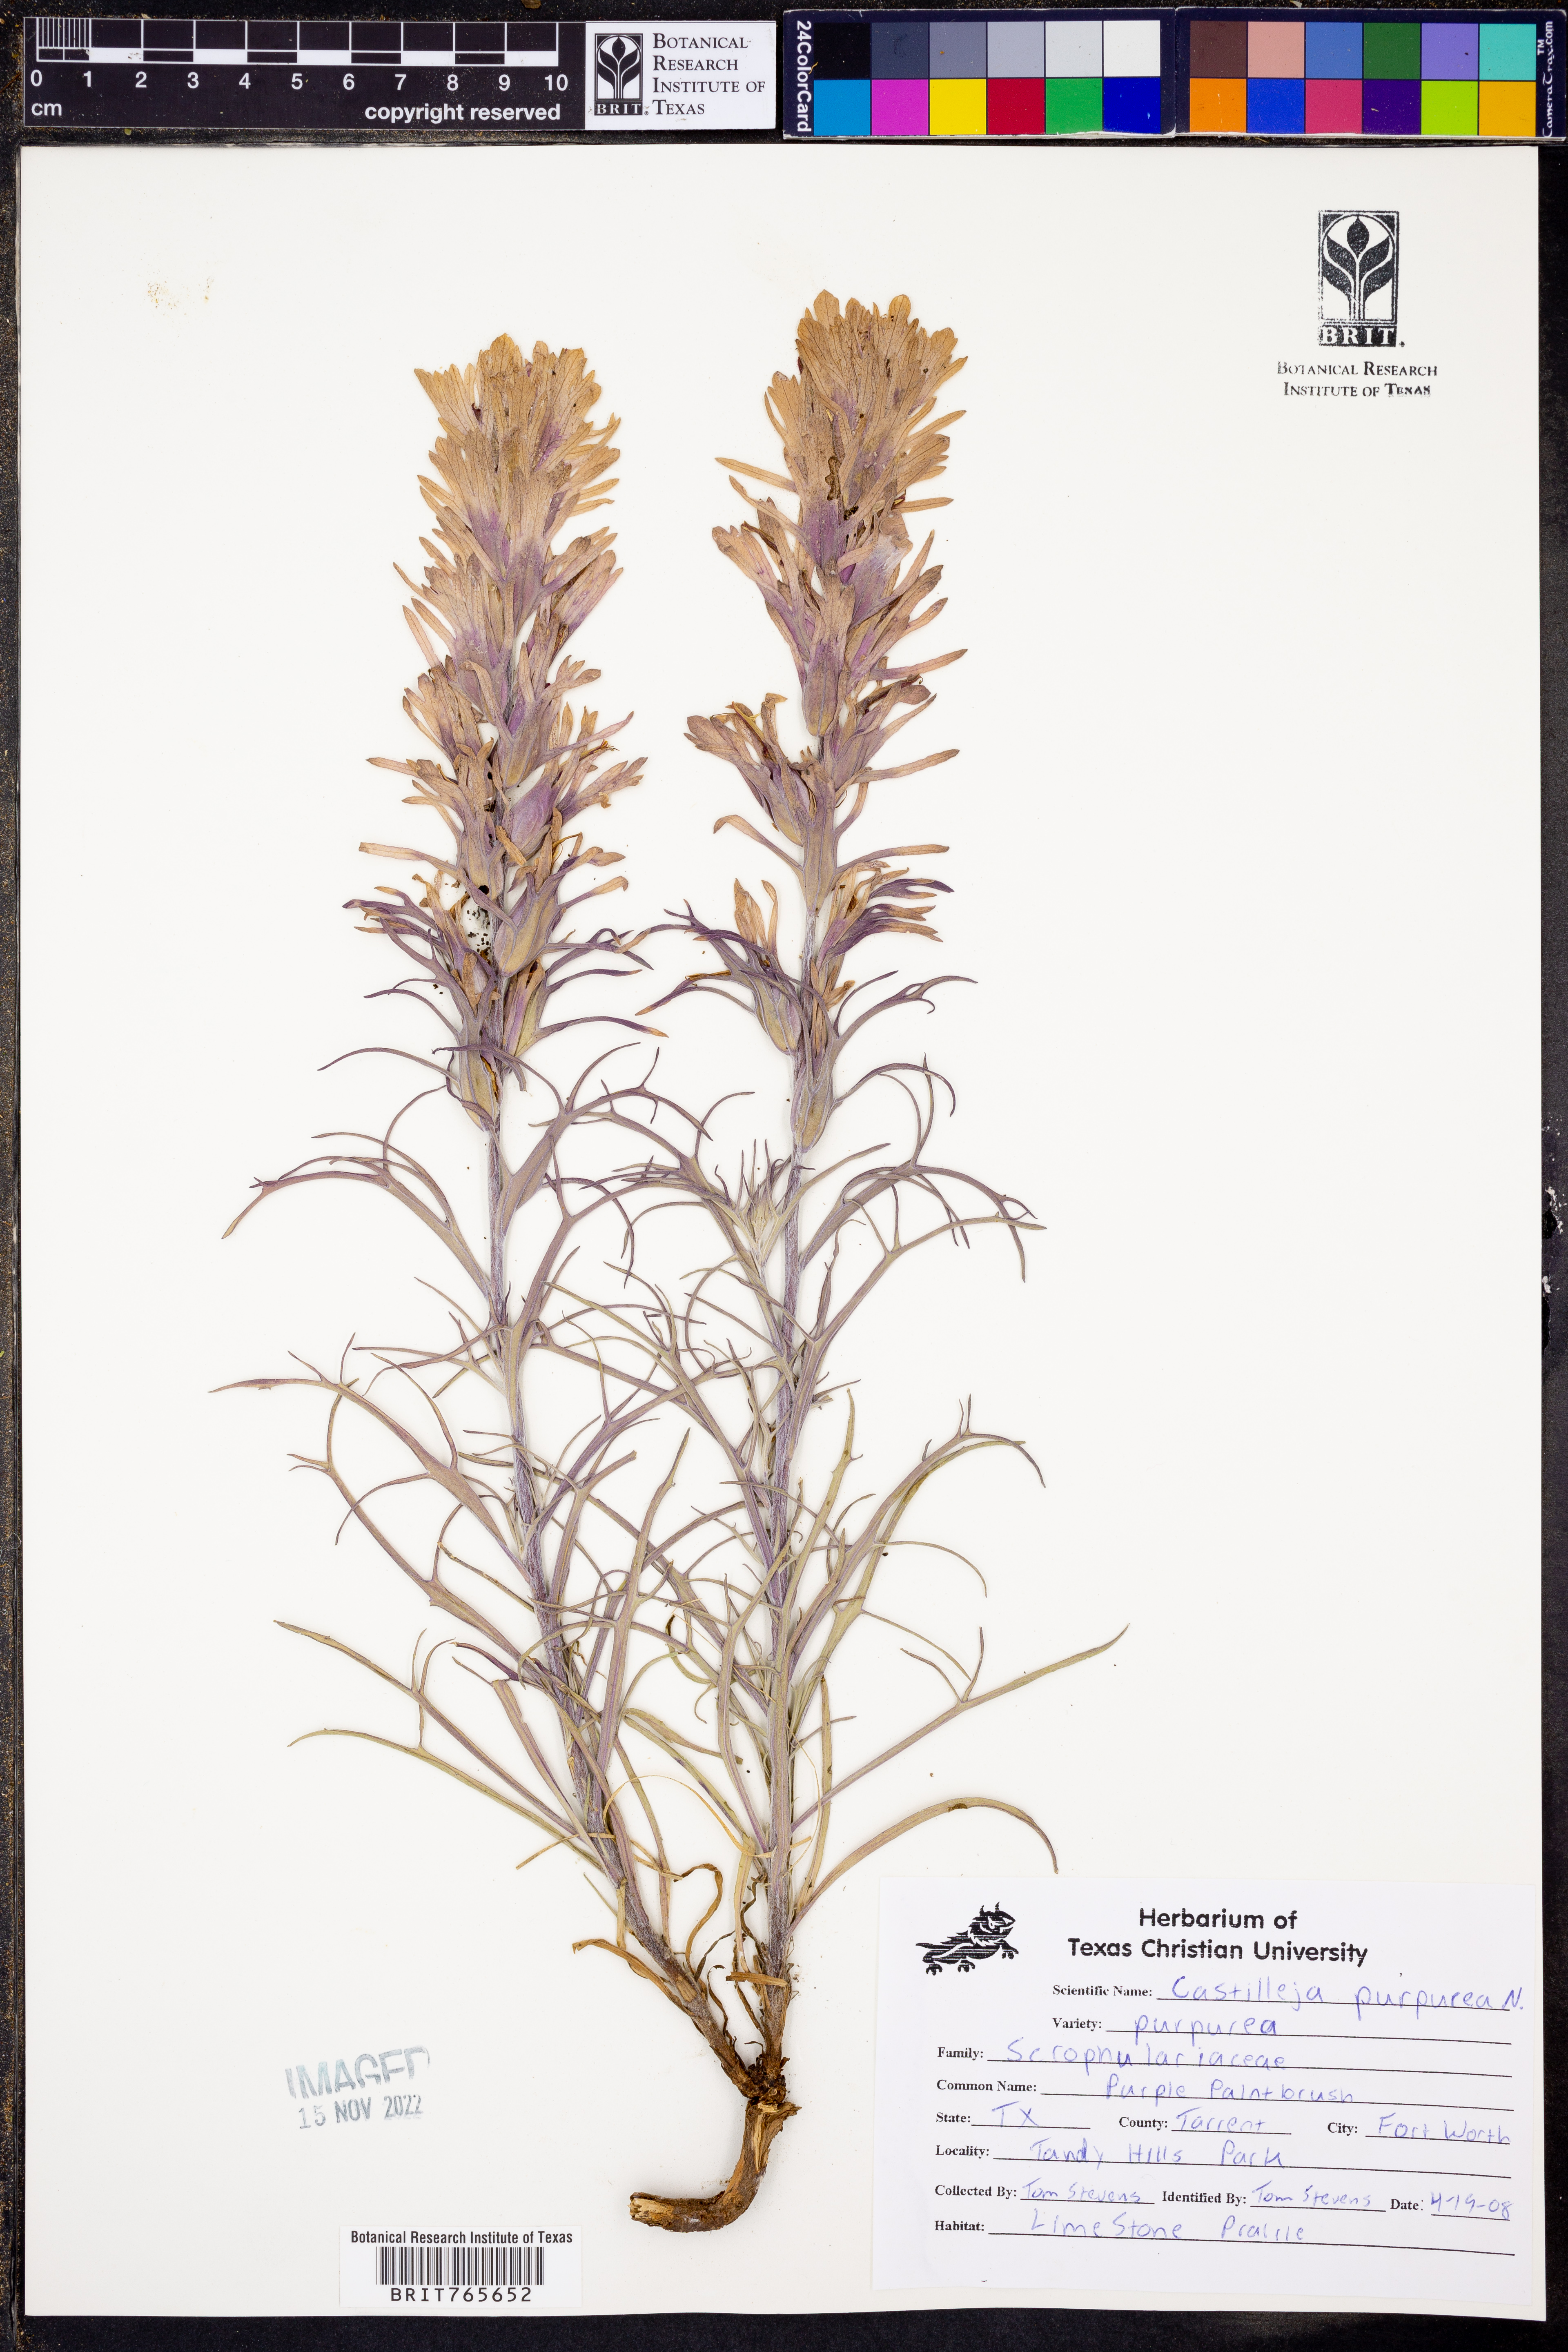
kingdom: Plantae
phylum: Tracheophyta
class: Magnoliopsida
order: Lamiales
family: Orobanchaceae
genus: Castilleja
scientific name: Castilleja purpurea
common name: Plains paintbrush
